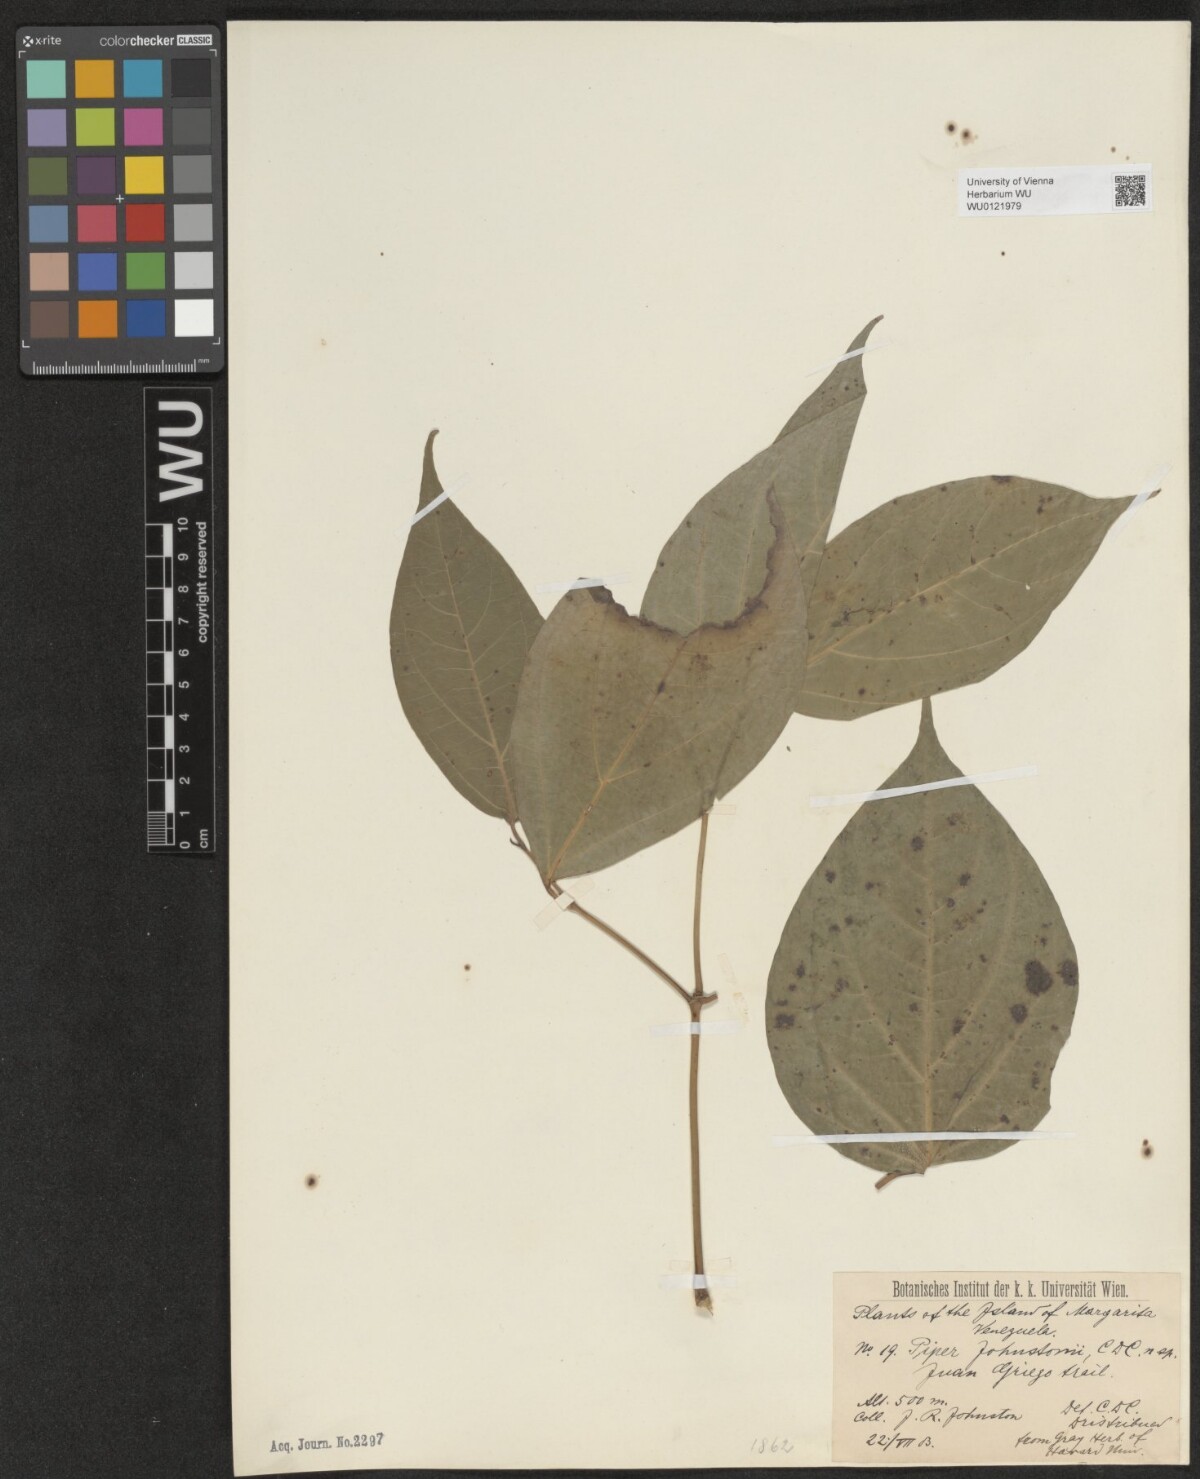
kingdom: Plantae
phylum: Tracheophyta
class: Magnoliopsida
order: Piperales
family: Piperaceae
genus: Piper
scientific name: Piper aequale
